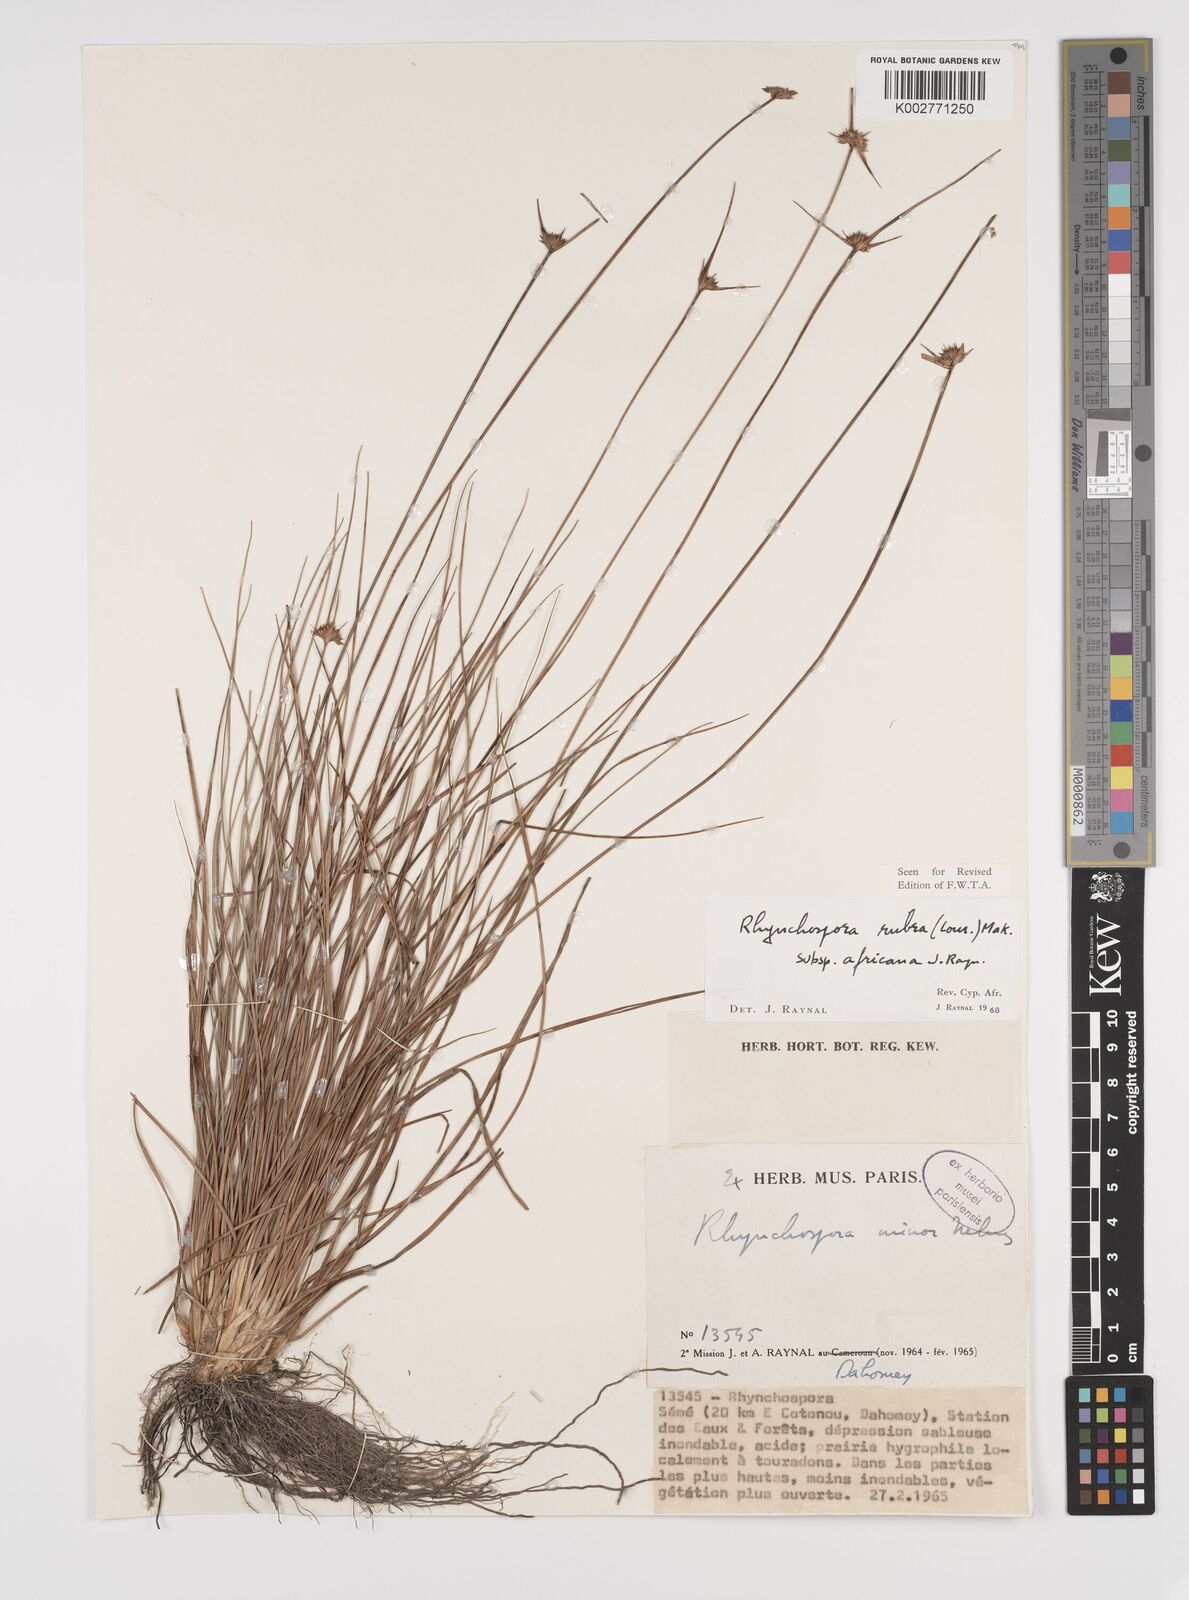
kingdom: Plantae
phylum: Tracheophyta
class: Liliopsida
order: Poales
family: Cyperaceae
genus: Rhynchospora
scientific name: Rhynchospora rubra
